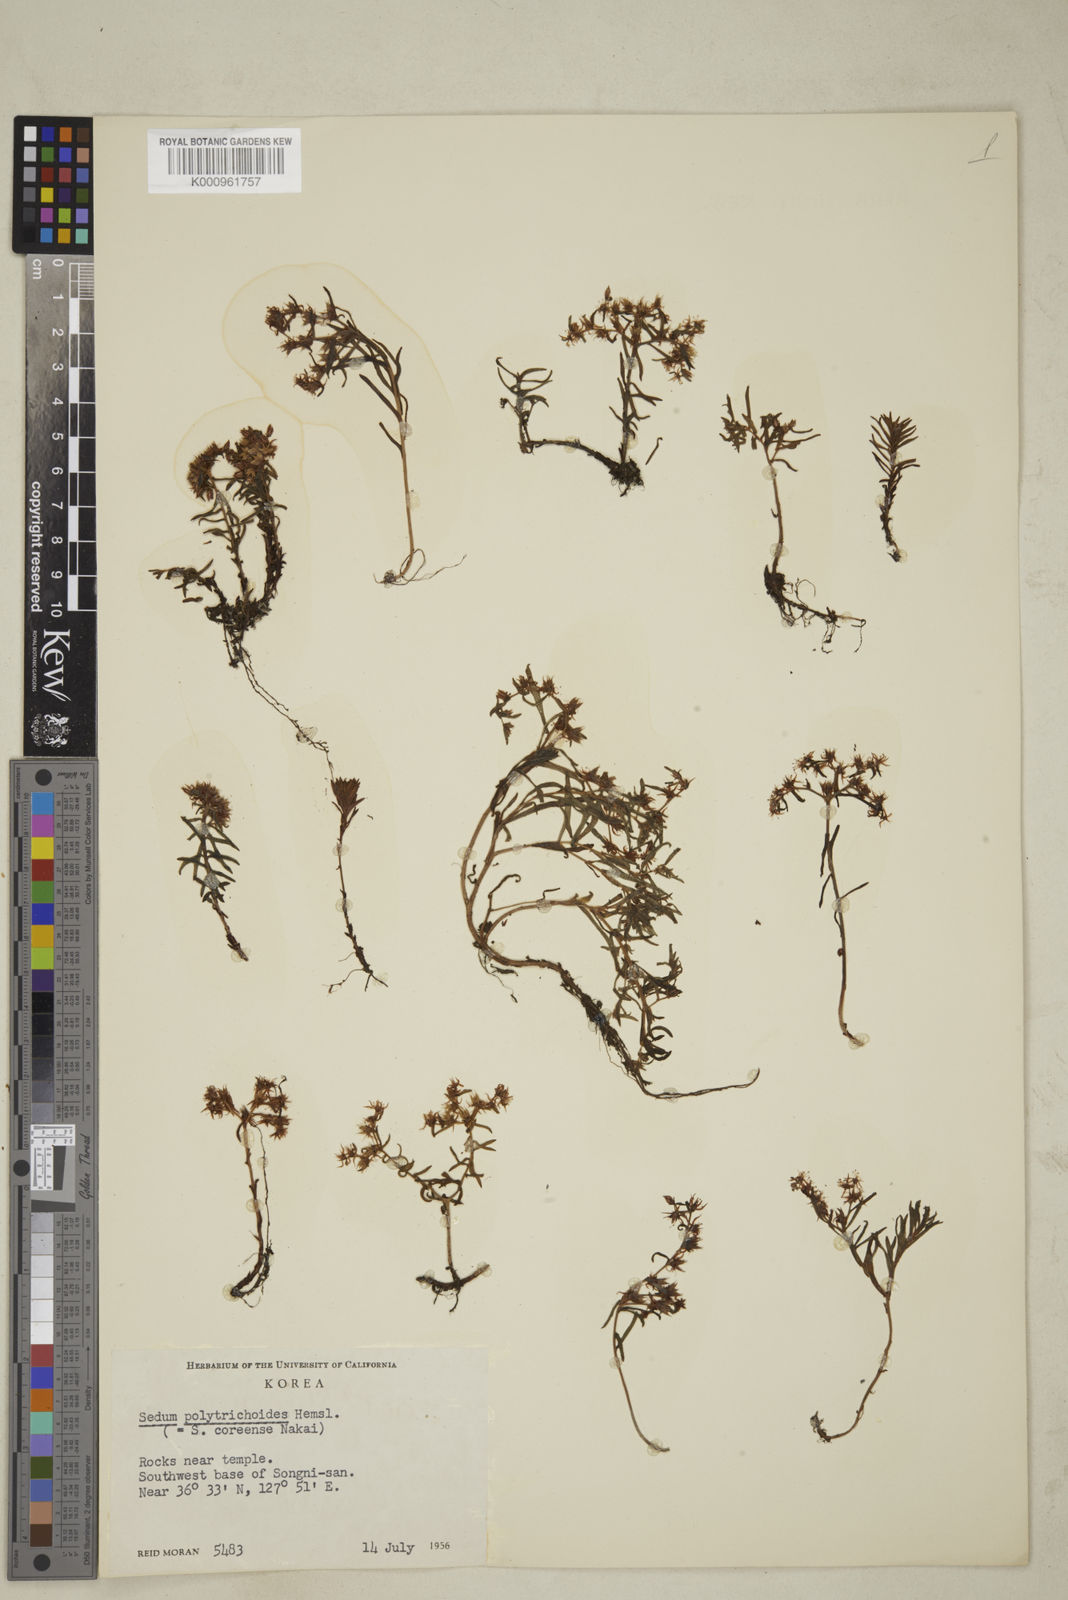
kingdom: Plantae
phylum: Tracheophyta
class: Magnoliopsida
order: Saxifragales
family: Crassulaceae
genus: Sedum
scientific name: Sedum polytrichoides
